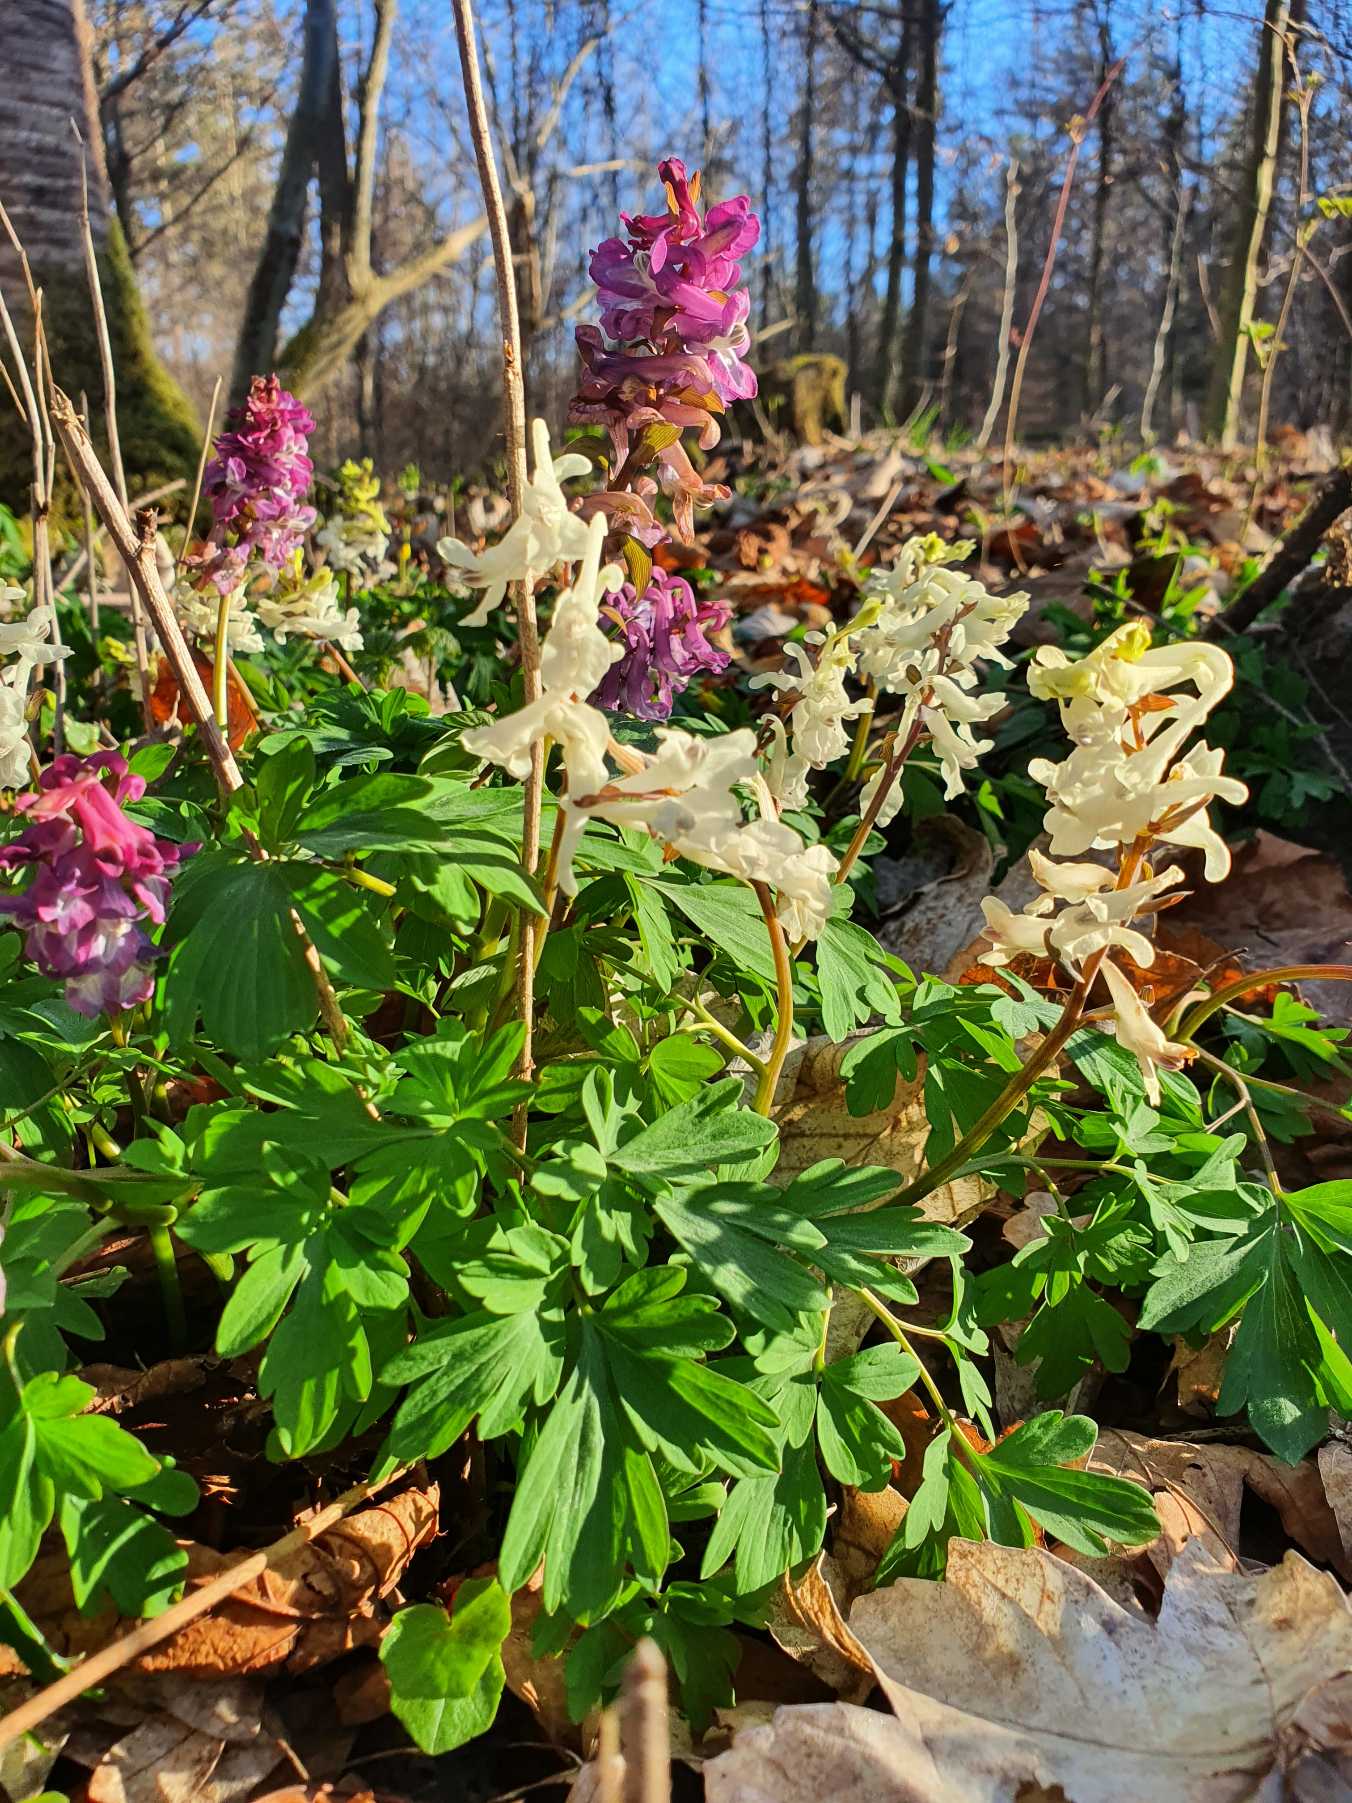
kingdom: Plantae
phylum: Tracheophyta
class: Magnoliopsida
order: Ranunculales
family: Papaveraceae
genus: Corydalis
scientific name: Corydalis cava
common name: Hulrodet lærkespore
